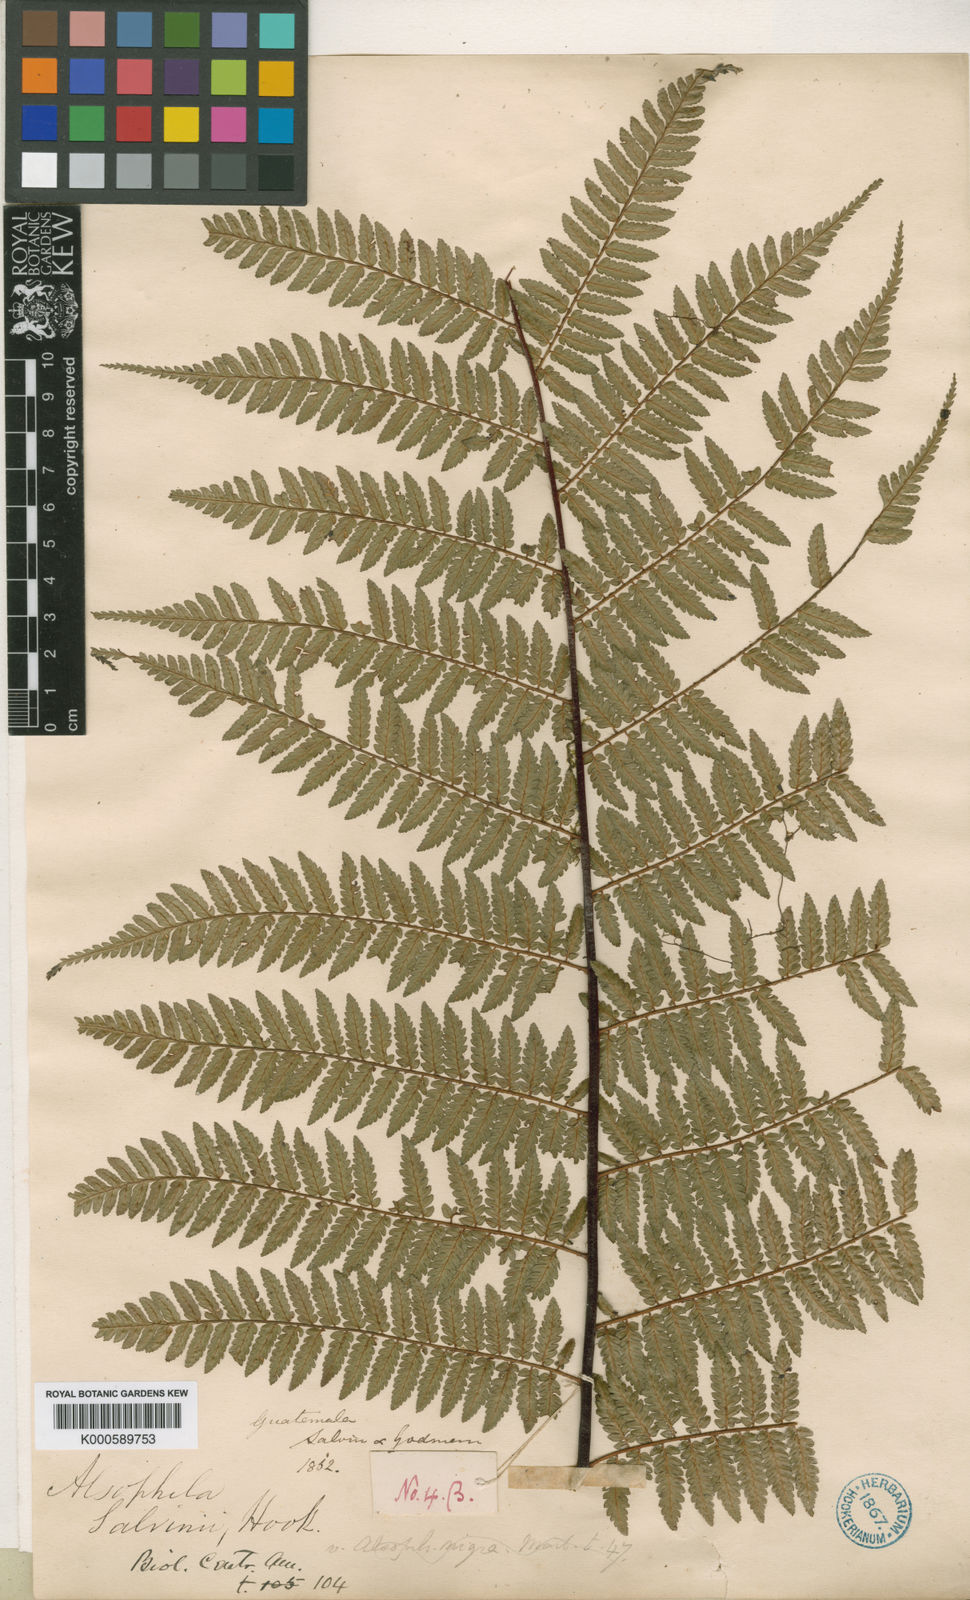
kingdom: Plantae
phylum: Tracheophyta
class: Polypodiopsida
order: Cyatheales
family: Cyatheaceae
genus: Gymnosphaera
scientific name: Gymnosphaera salvinii
